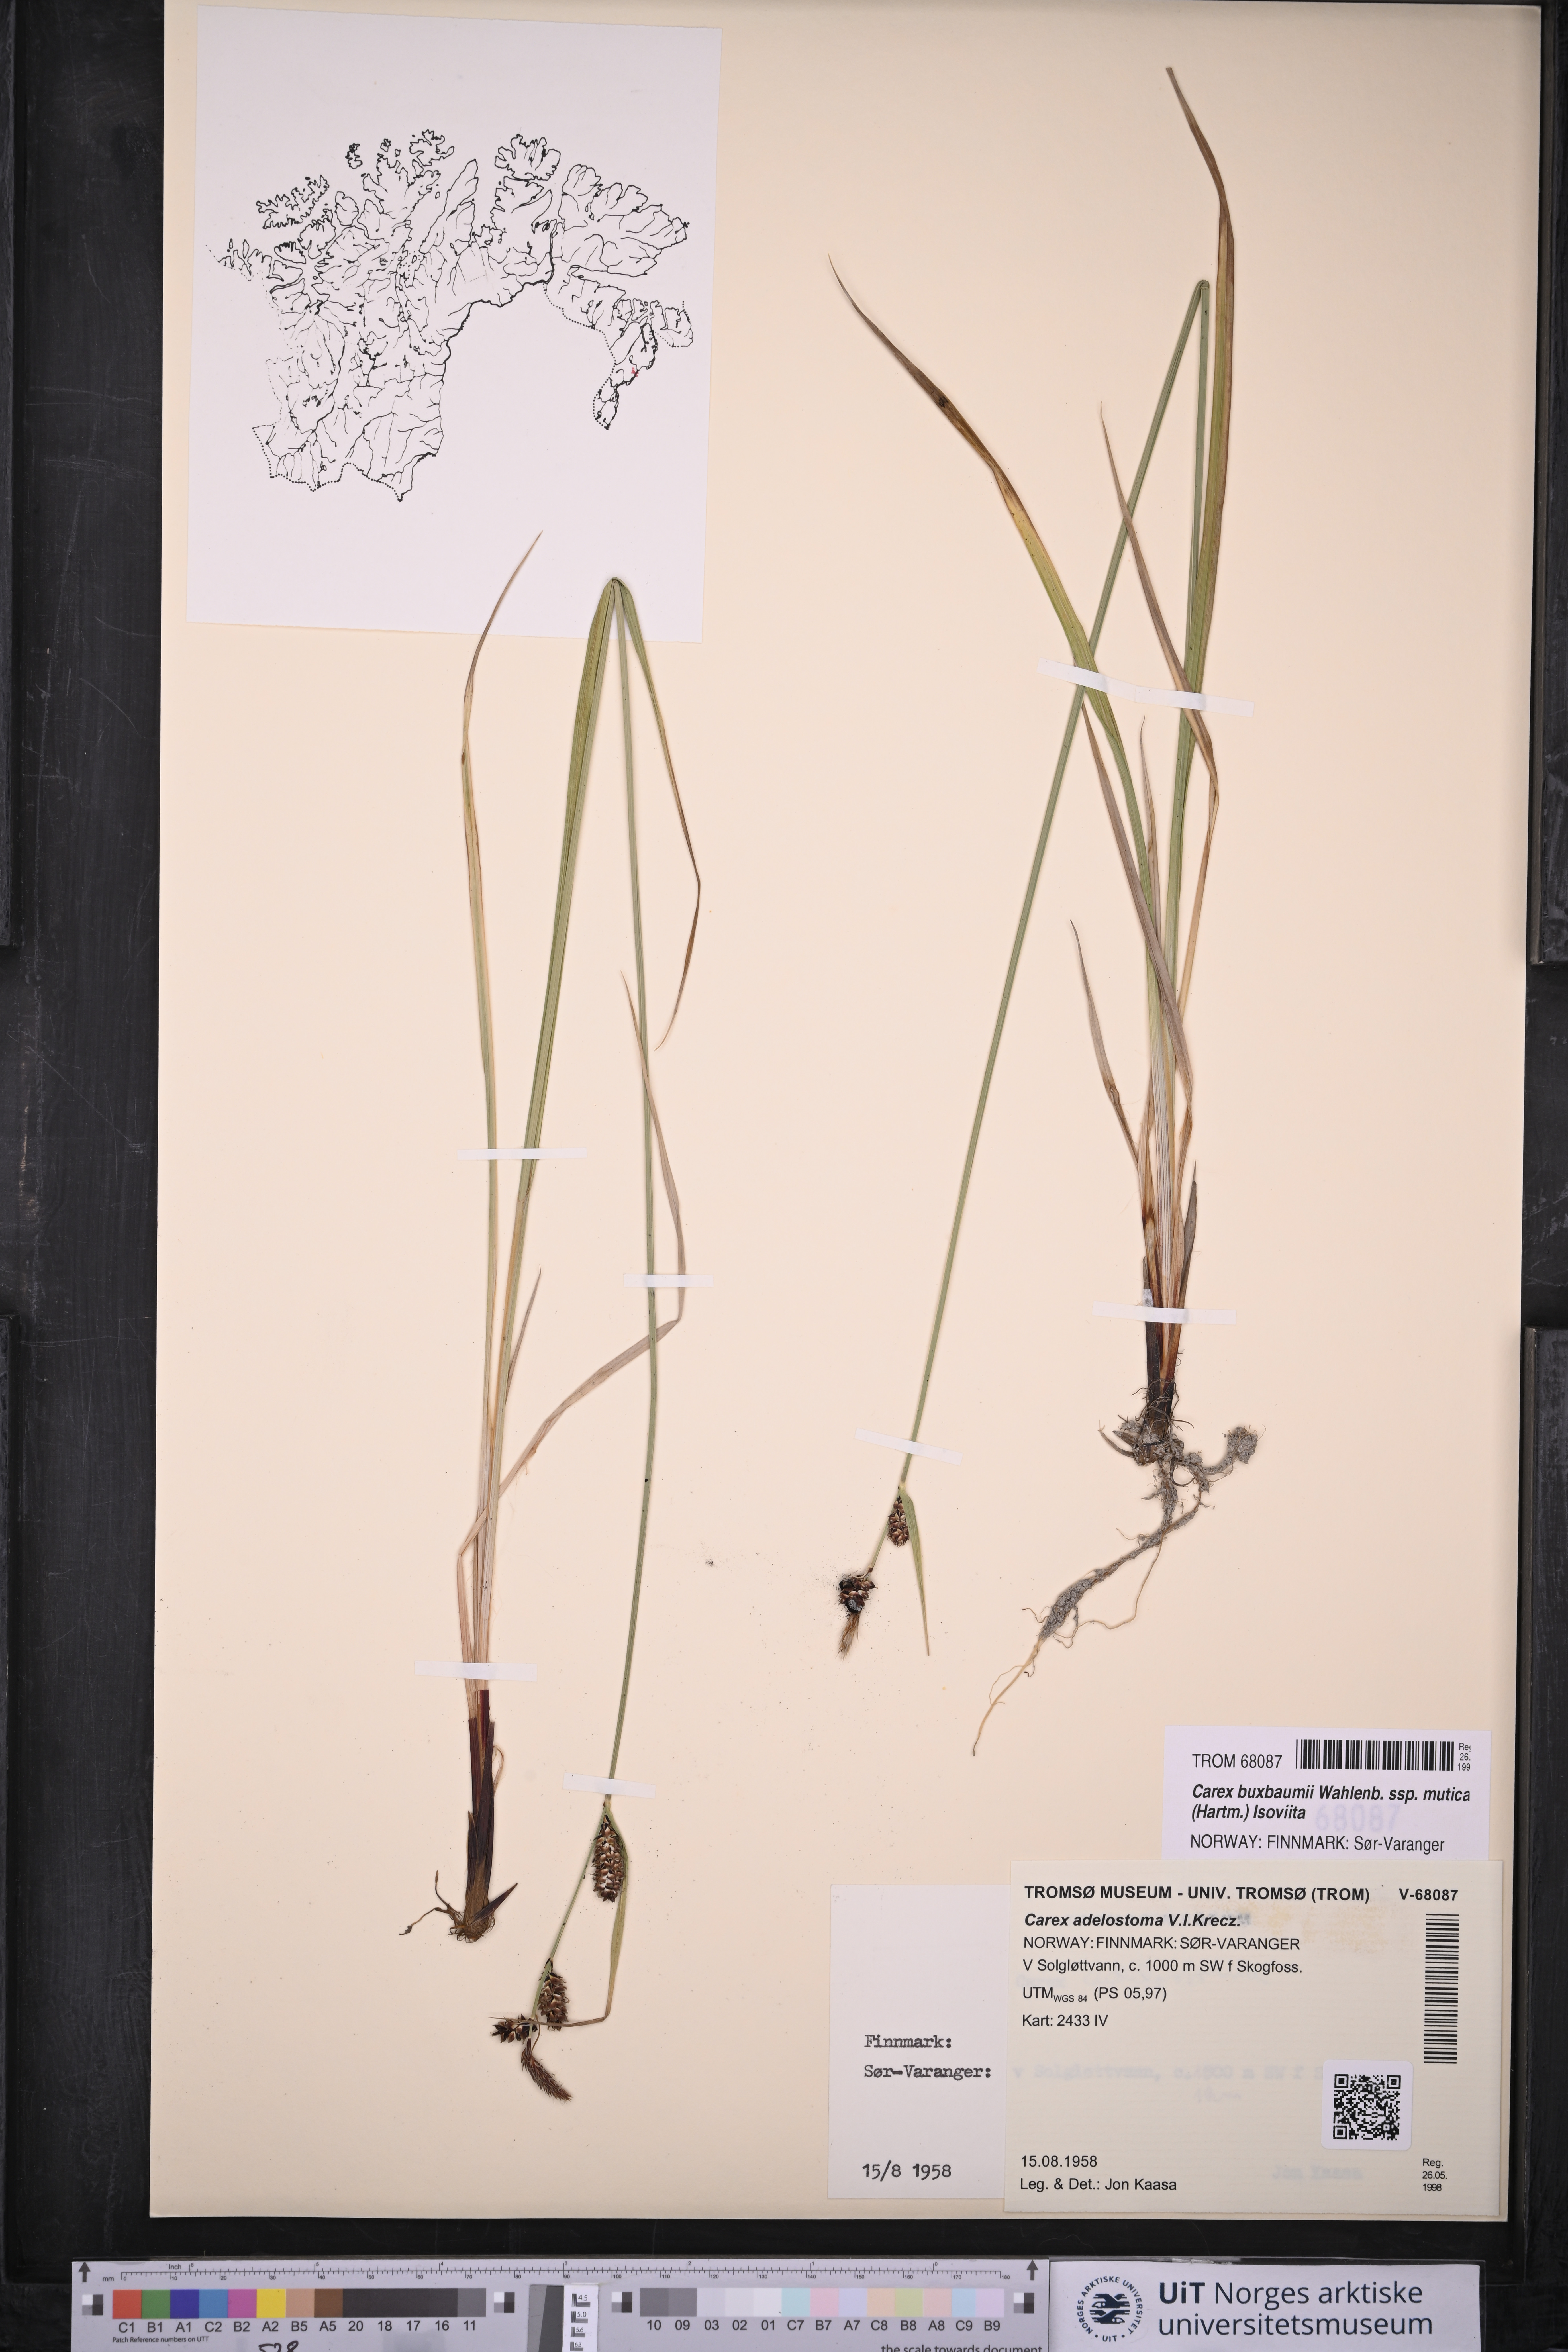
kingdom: Plantae
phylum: Tracheophyta
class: Liliopsida
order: Poales
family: Cyperaceae
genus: Carex
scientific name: Carex adelostoma
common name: Circumpolar sedge
